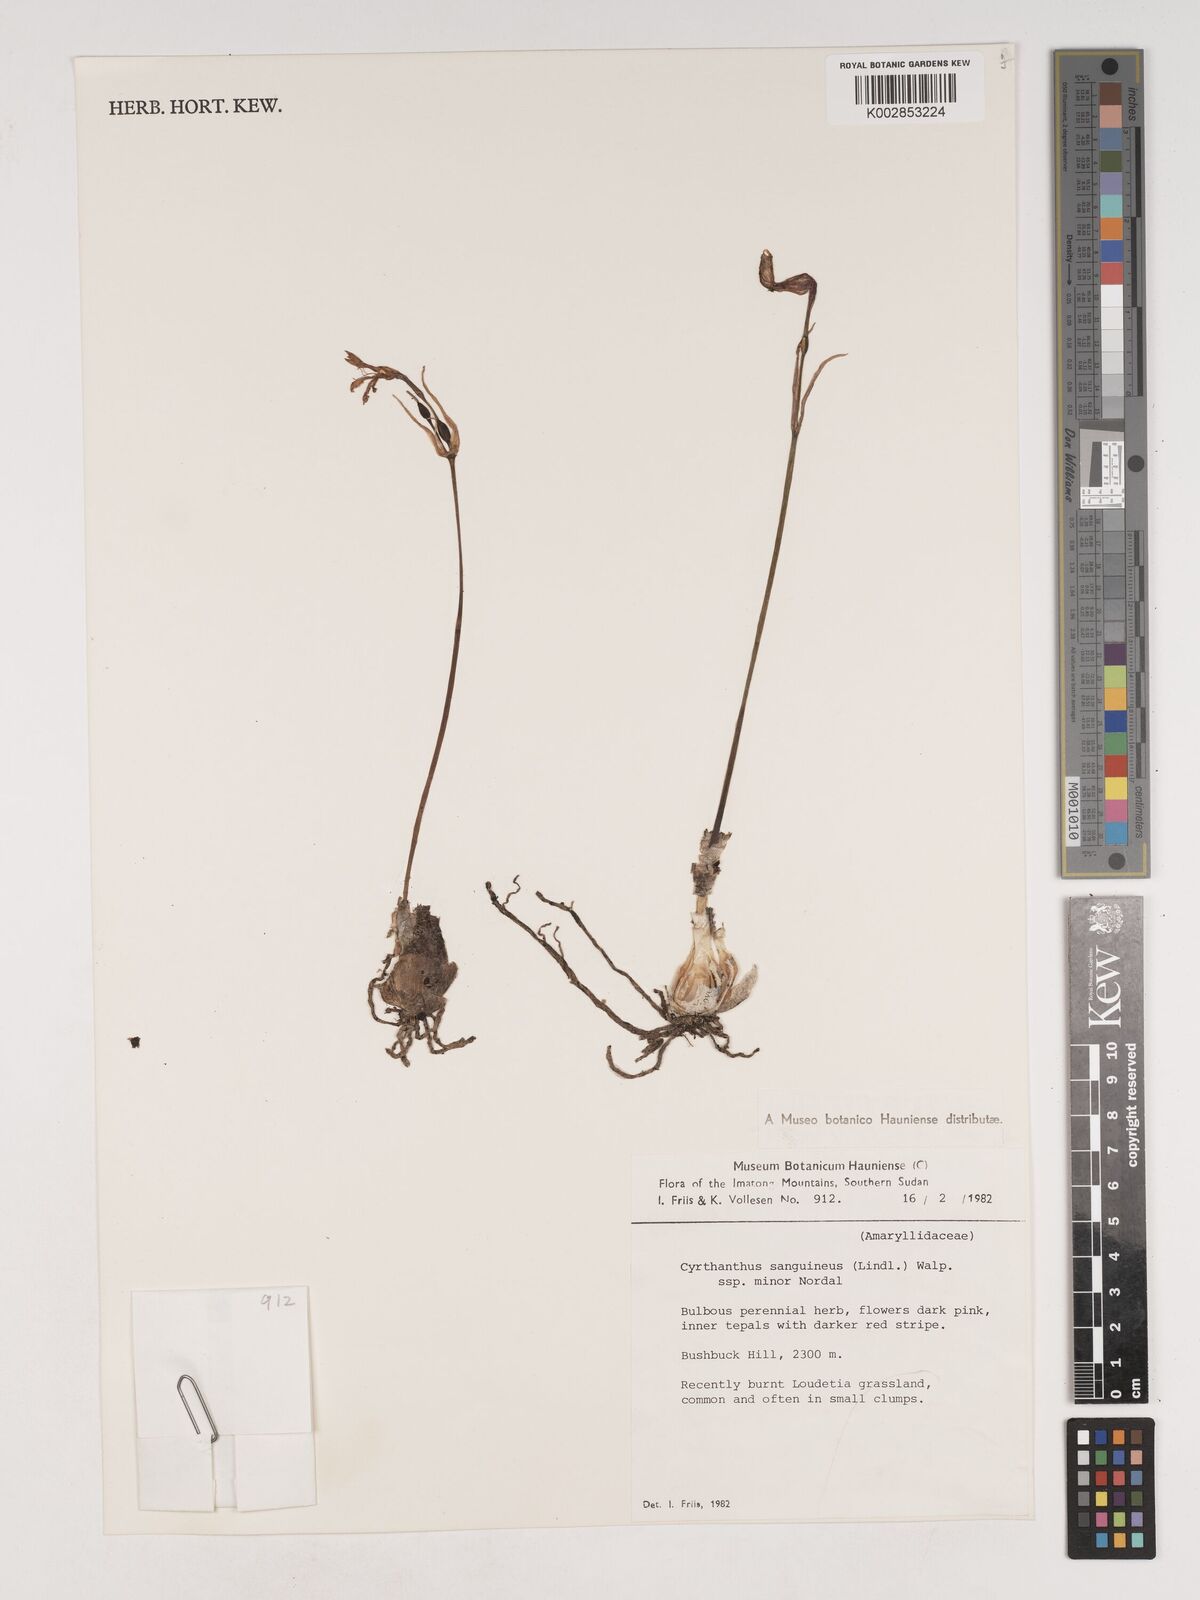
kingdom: Plantae
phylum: Tracheophyta
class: Liliopsida
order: Asparagales
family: Amaryllidaceae
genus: Cyrtanthus
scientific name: Cyrtanthus sanguineus
